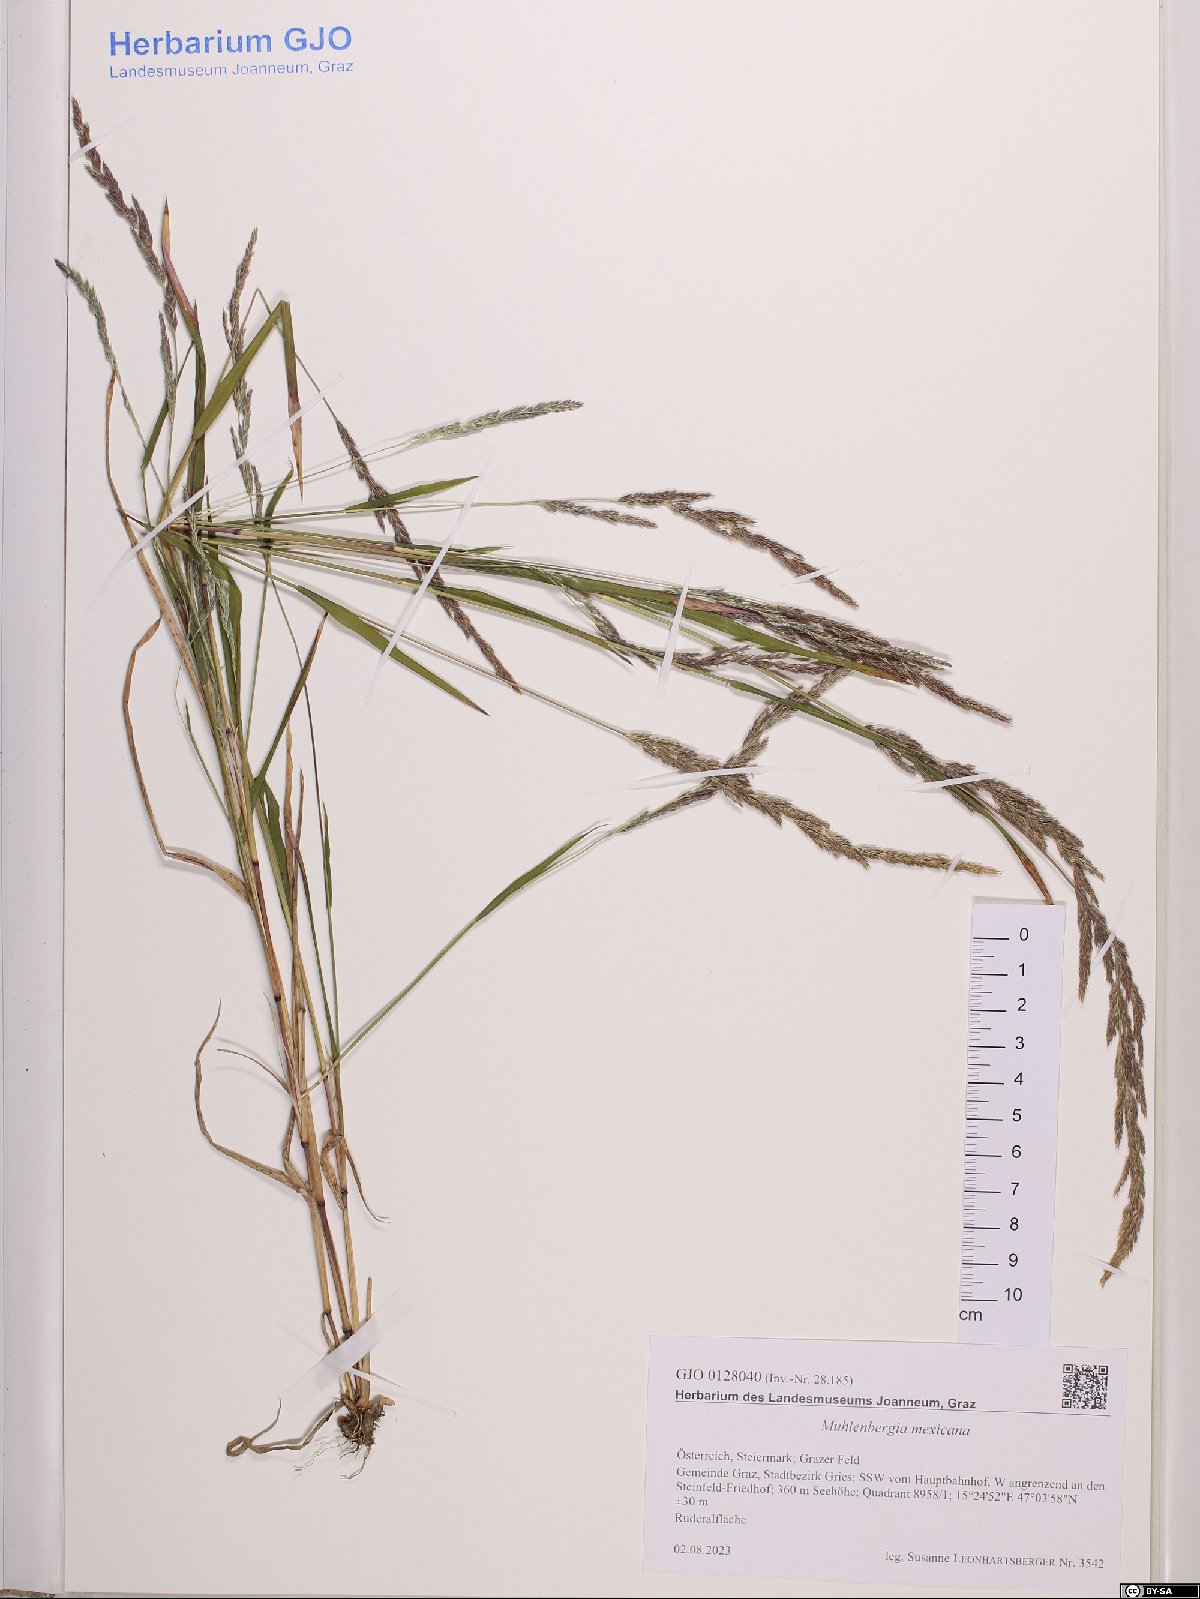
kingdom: Plantae
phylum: Tracheophyta
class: Liliopsida
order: Poales
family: Poaceae
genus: Muhlenbergia
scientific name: Muhlenbergia mexicana
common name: Mexican muhly
